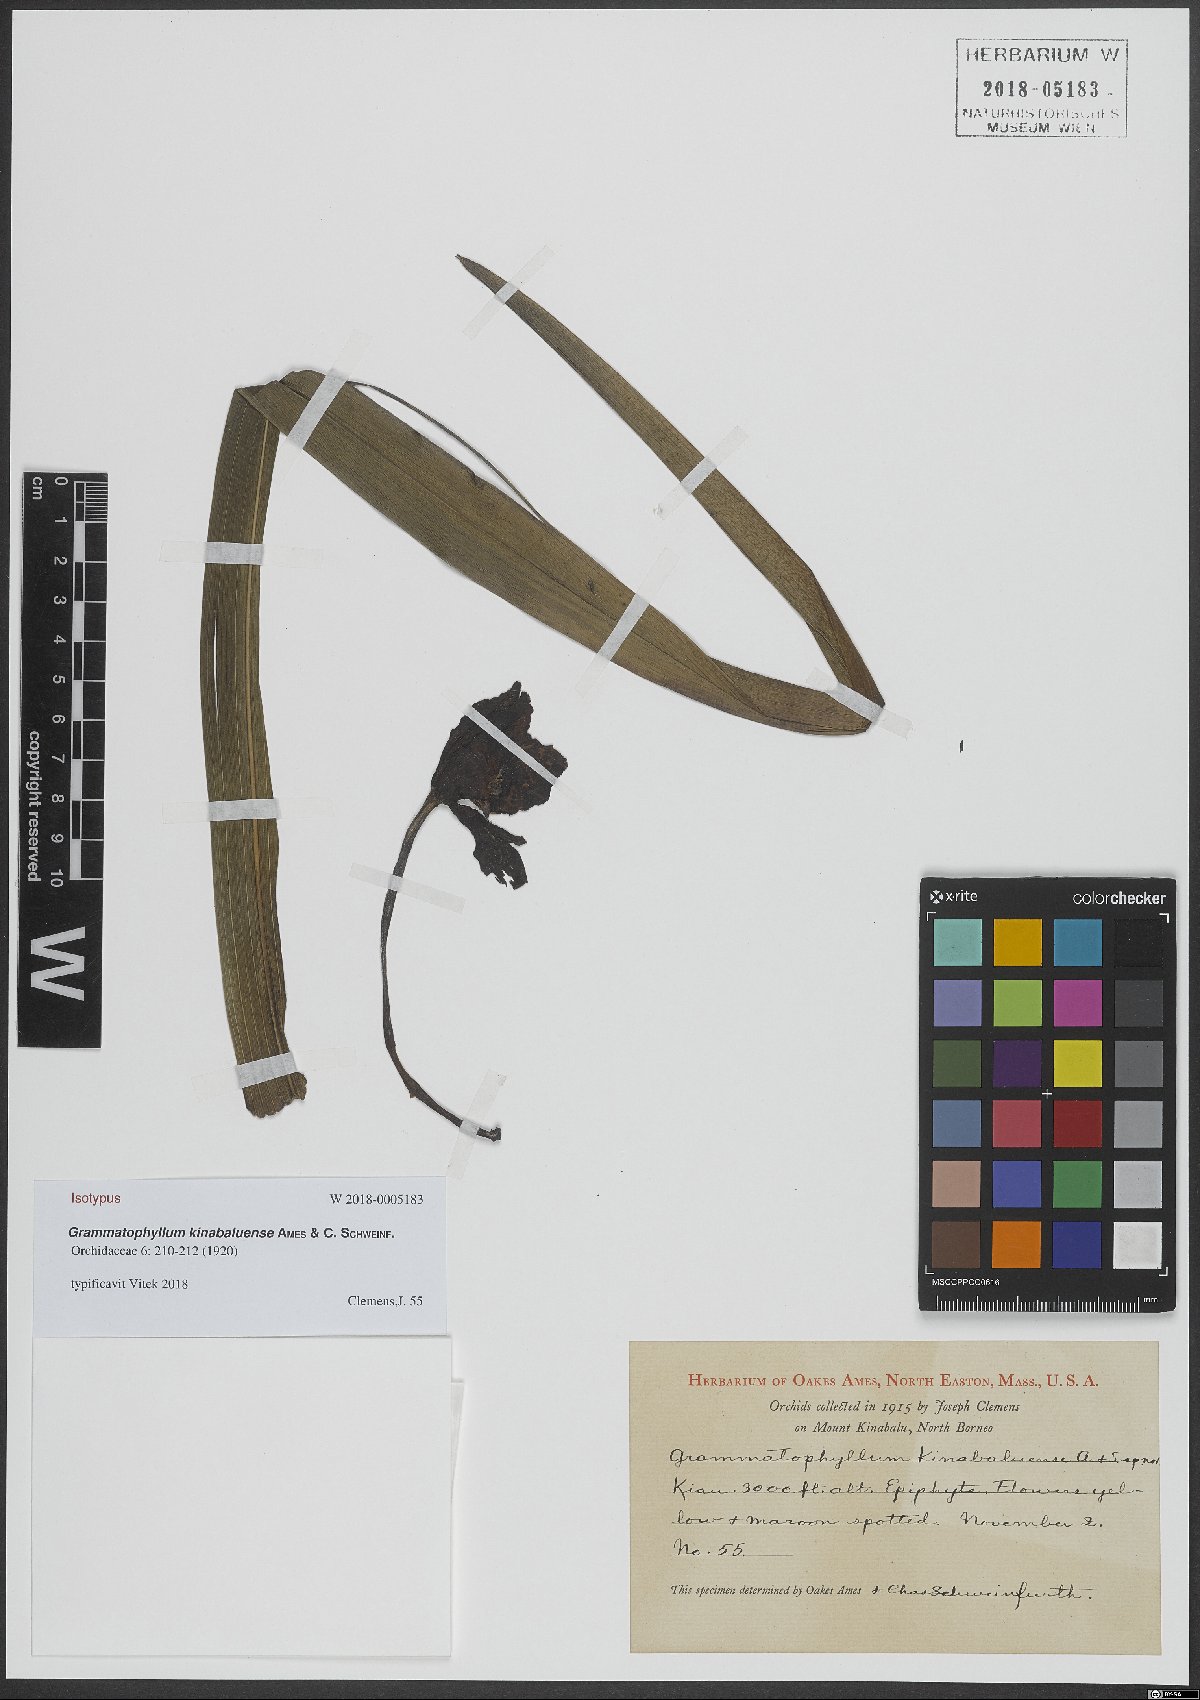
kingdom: Plantae
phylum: Tracheophyta
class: Liliopsida
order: Asparagales
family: Orchidaceae
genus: Grammatophyllum
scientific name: Grammatophyllum kinabaluense
